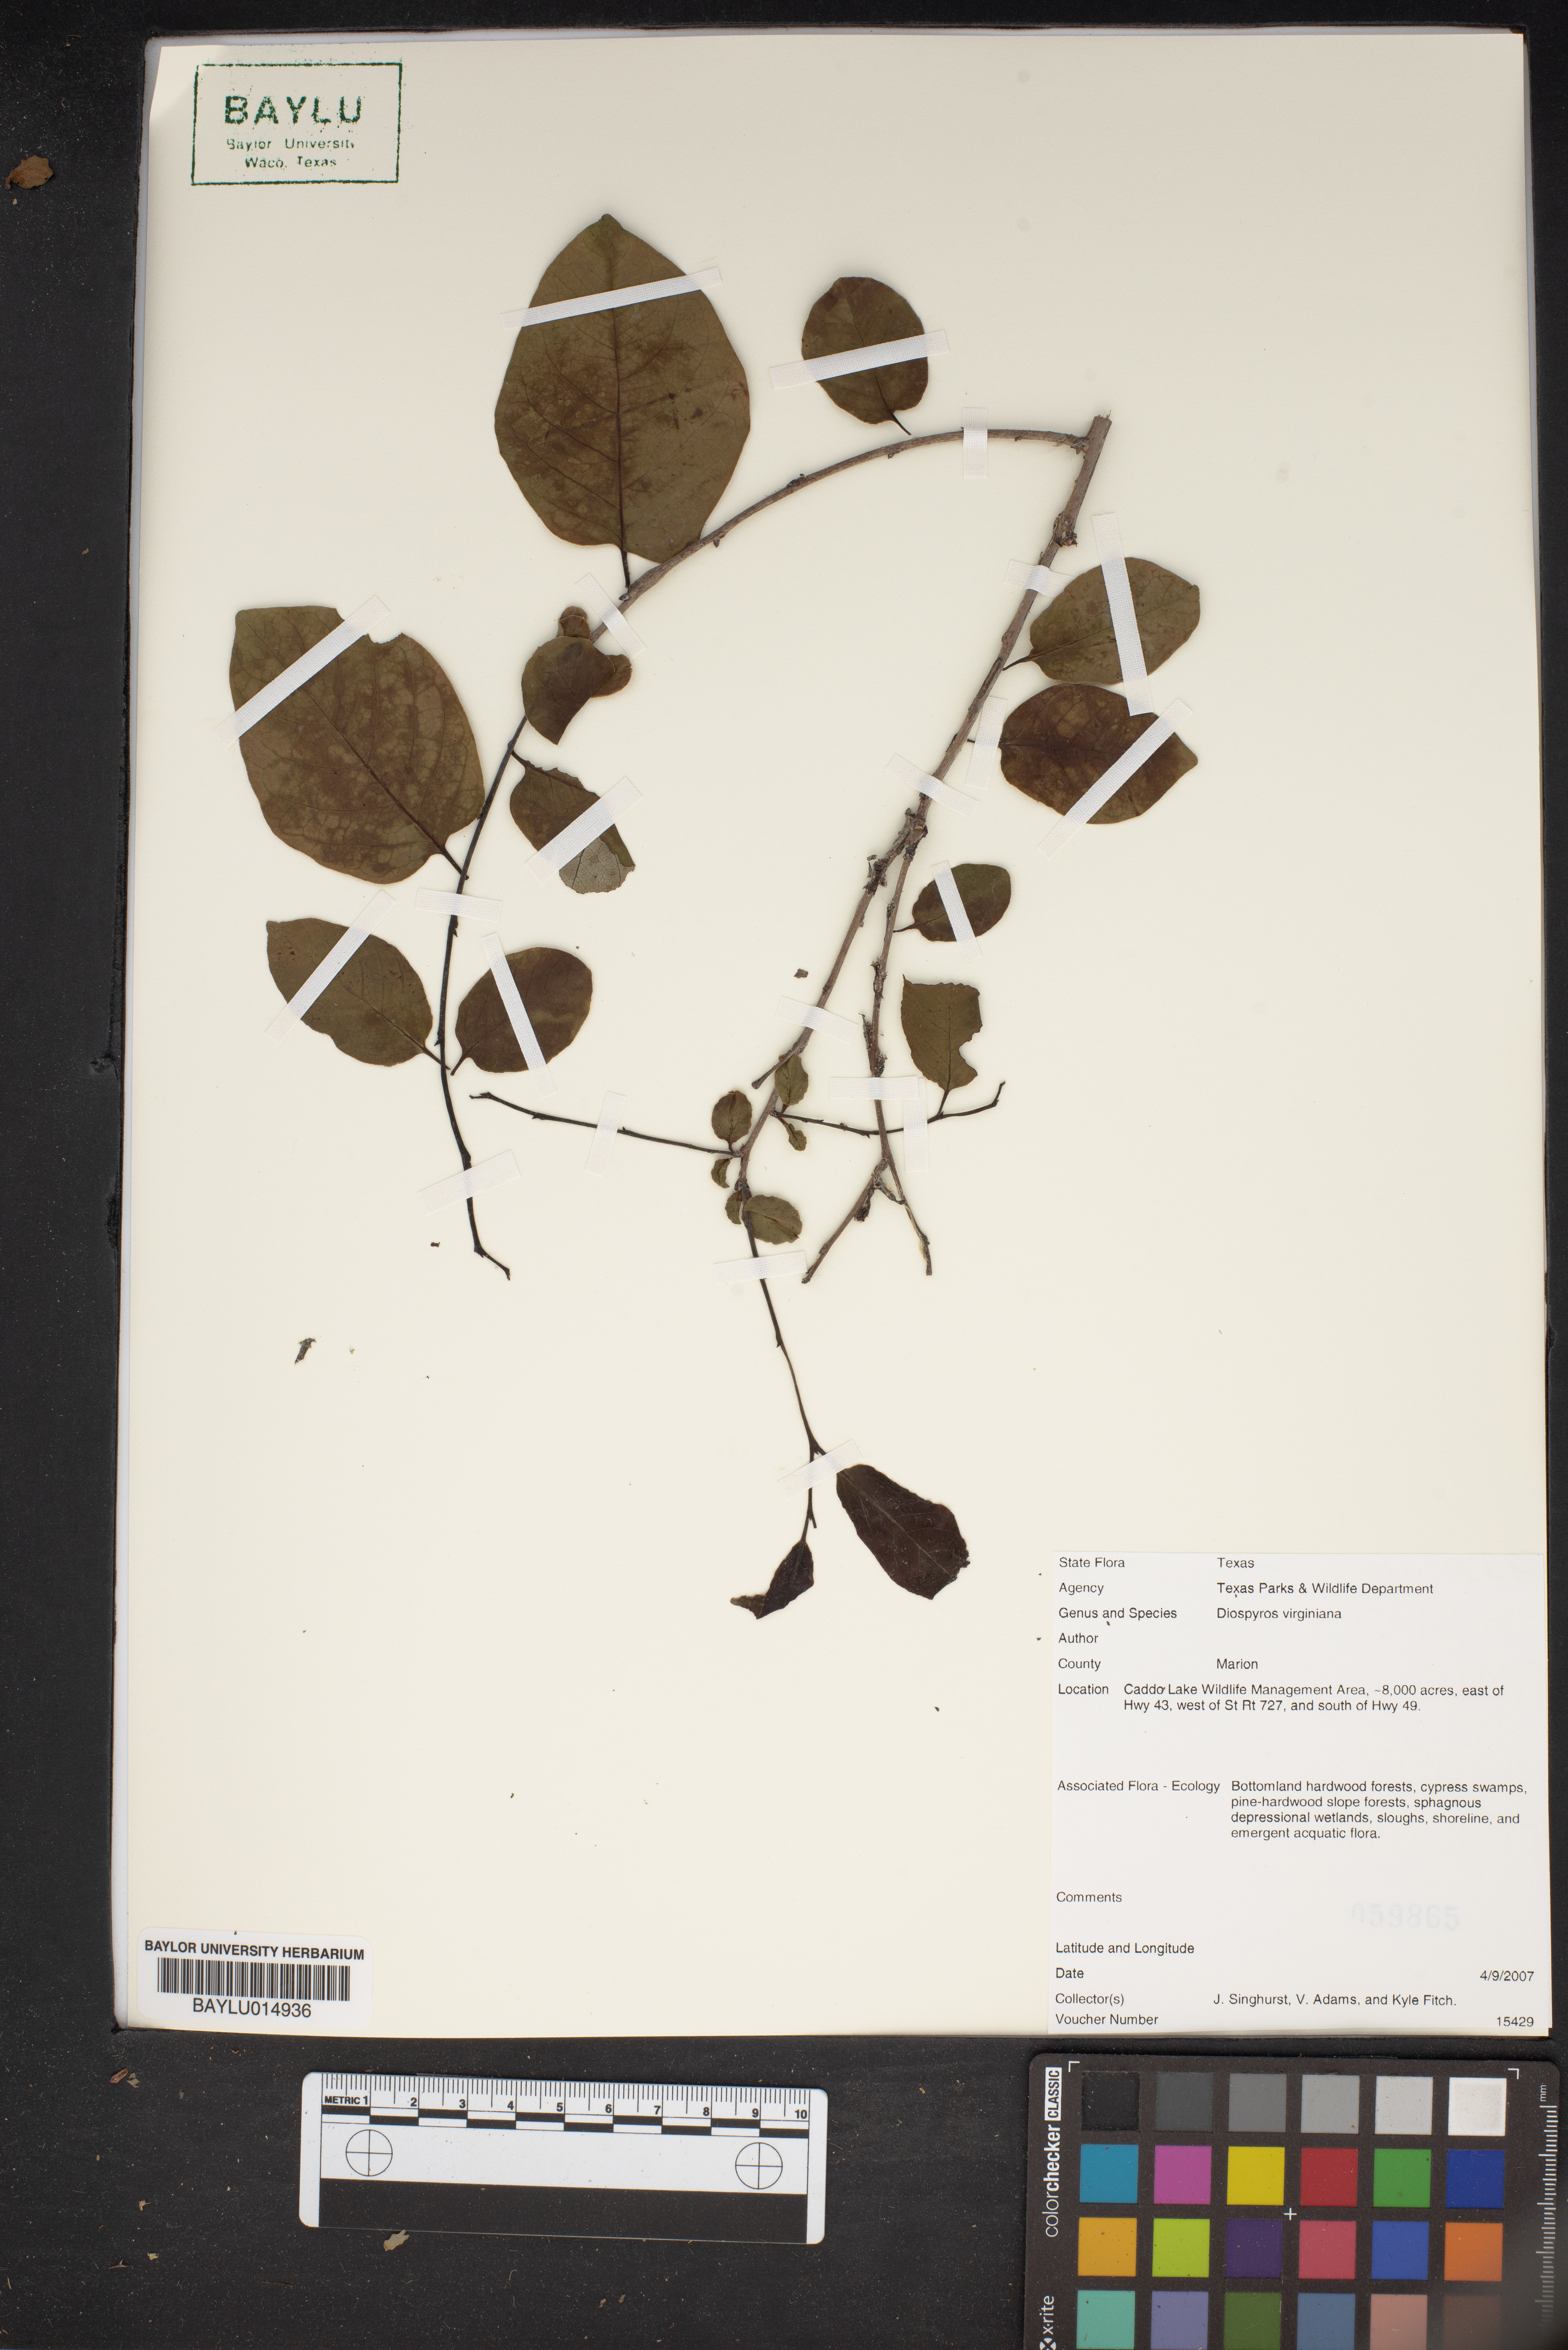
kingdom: Plantae
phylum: Tracheophyta
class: Magnoliopsida
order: Ericales
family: Ebenaceae
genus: Diospyros
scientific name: Diospyros virginiana
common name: Persimmon
